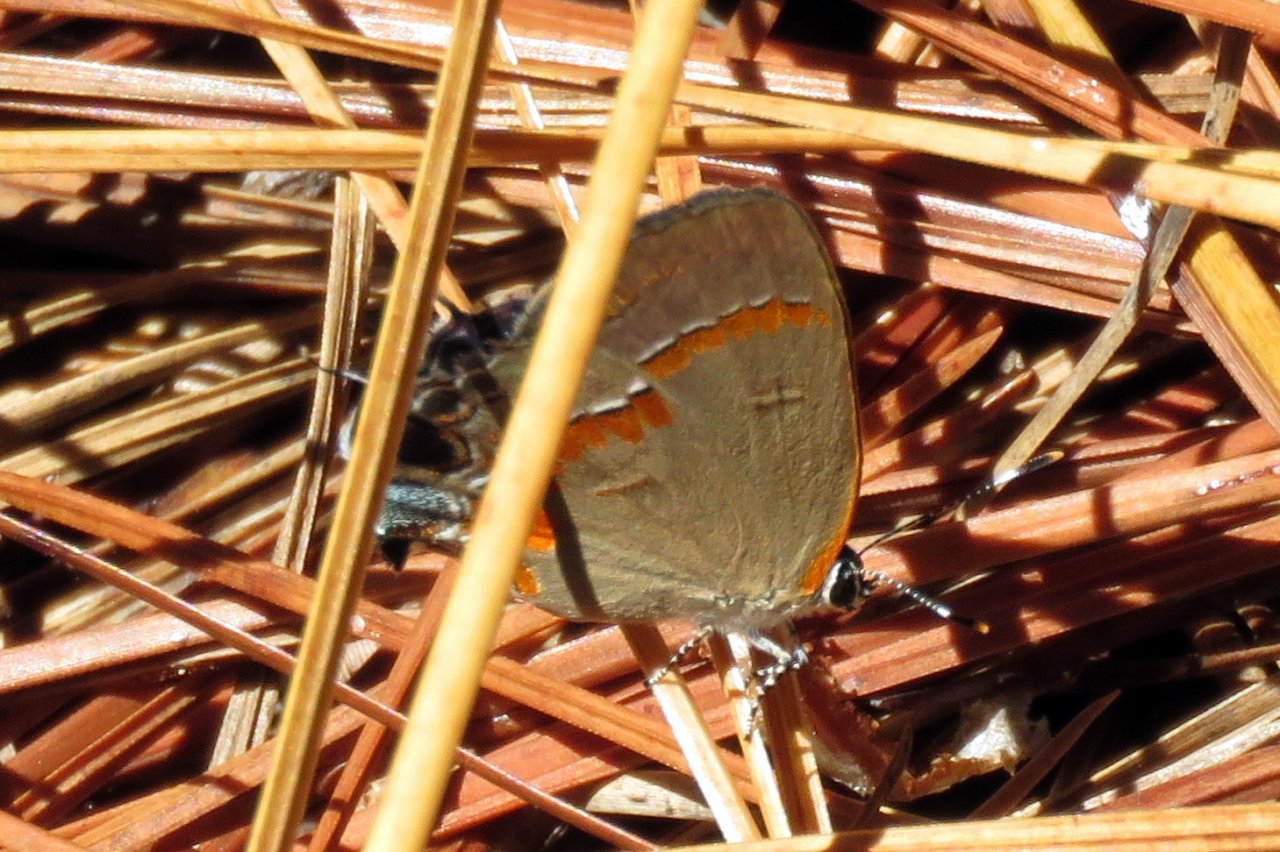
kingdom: Animalia
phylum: Arthropoda
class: Insecta
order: Lepidoptera
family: Lycaenidae
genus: Calycopis
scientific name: Calycopis cecrops
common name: Red-banded Hairstreak
